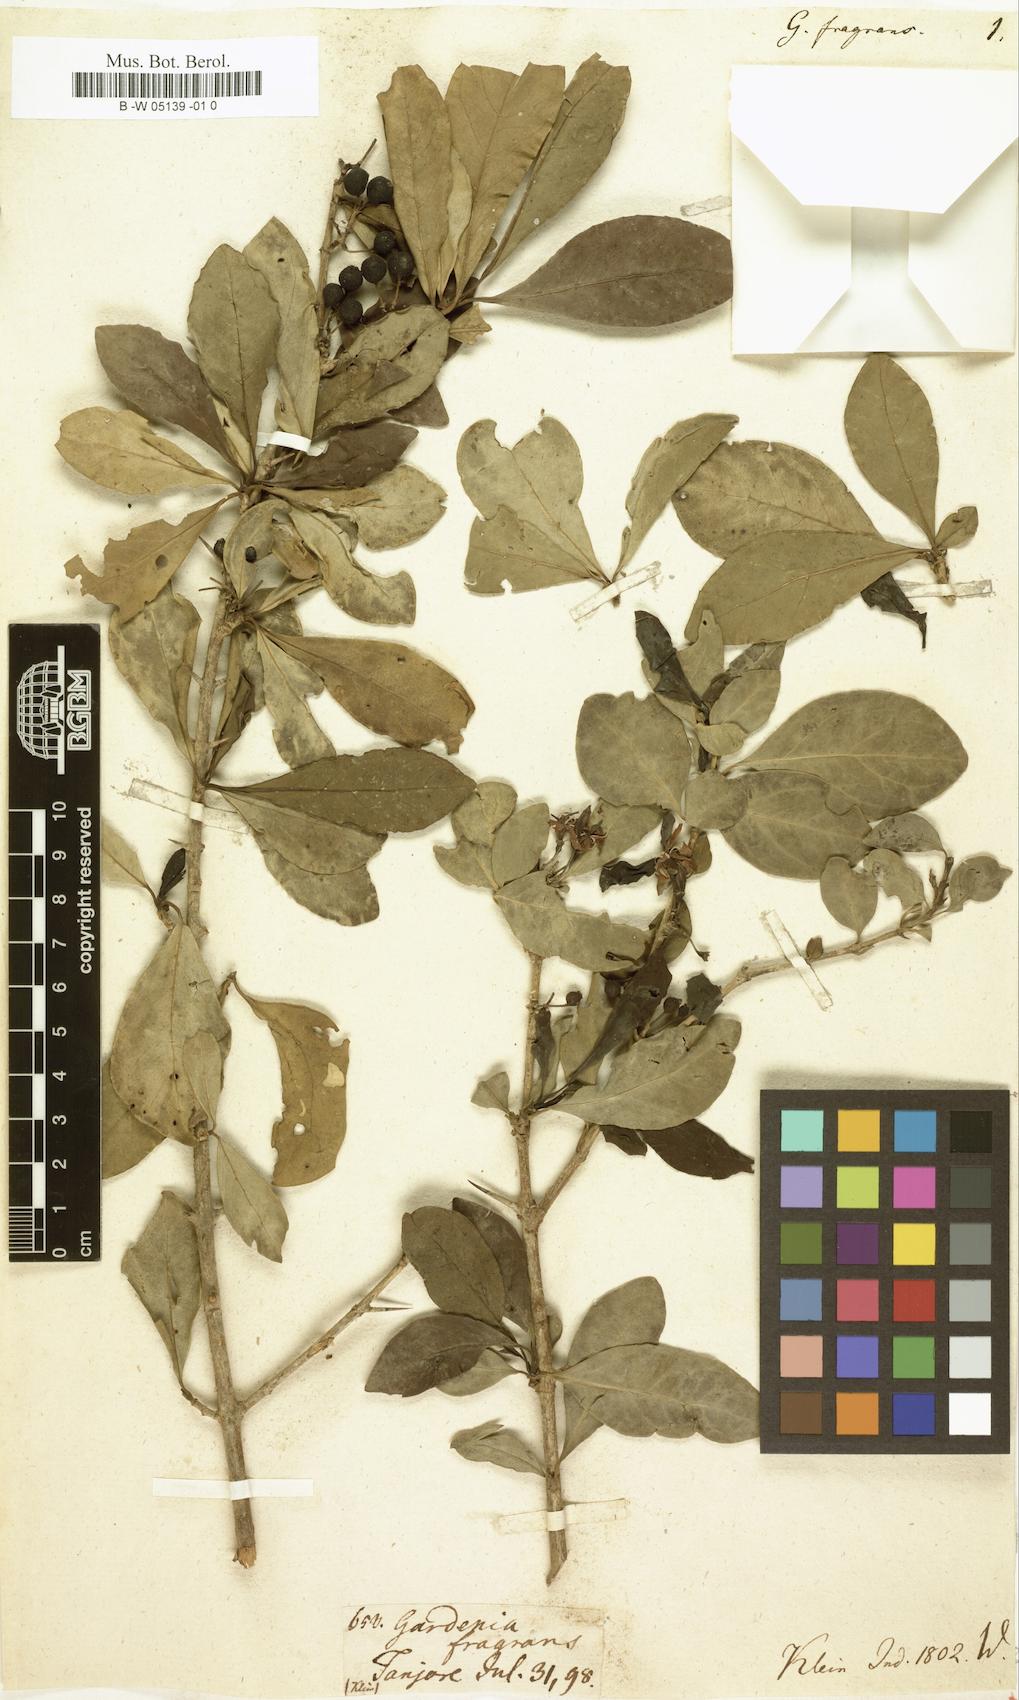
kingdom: Plantae
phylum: Tracheophyta
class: Magnoliopsida
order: Gentianales
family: Rubiaceae
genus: Benkara
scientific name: Benkara malabarica
